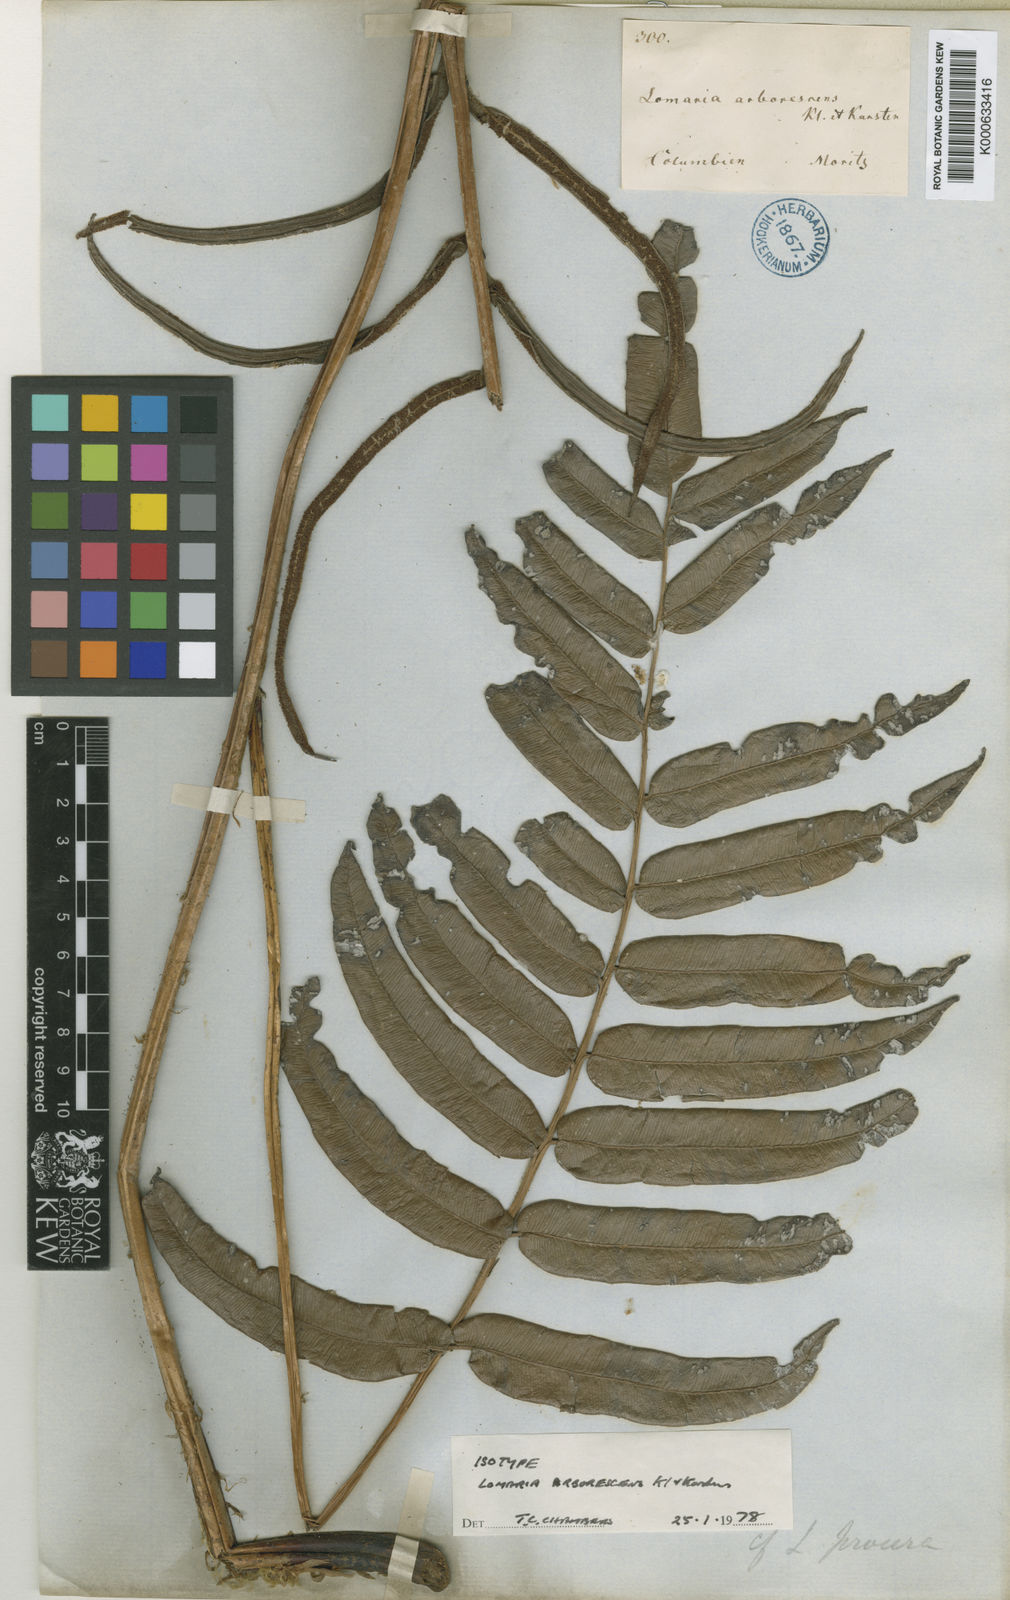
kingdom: Plantae
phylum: Tracheophyta
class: Polypodiopsida
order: Polypodiales
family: Blechnaceae
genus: Parablechnum
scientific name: Parablechnum cordatum
